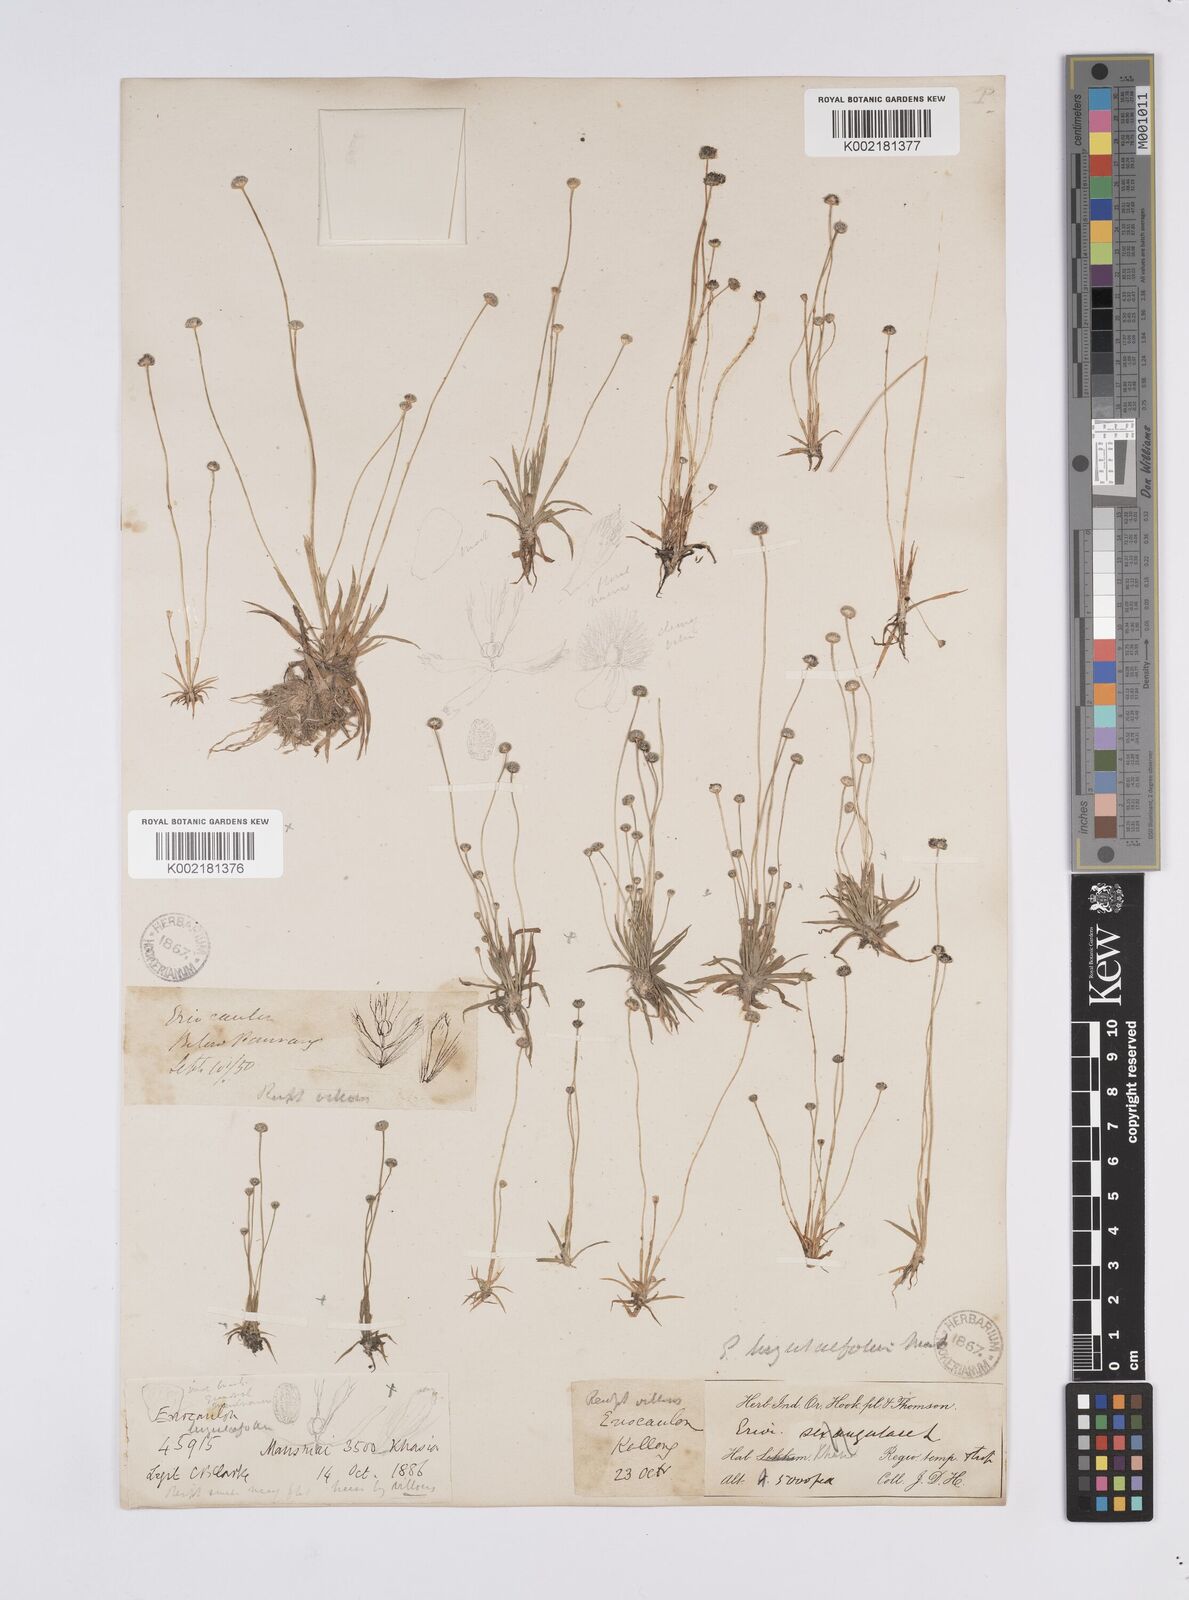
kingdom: Plantae
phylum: Tracheophyta
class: Liliopsida
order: Poales
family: Eriocaulaceae
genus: Eriocaulon
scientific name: Eriocaulon nepalense
